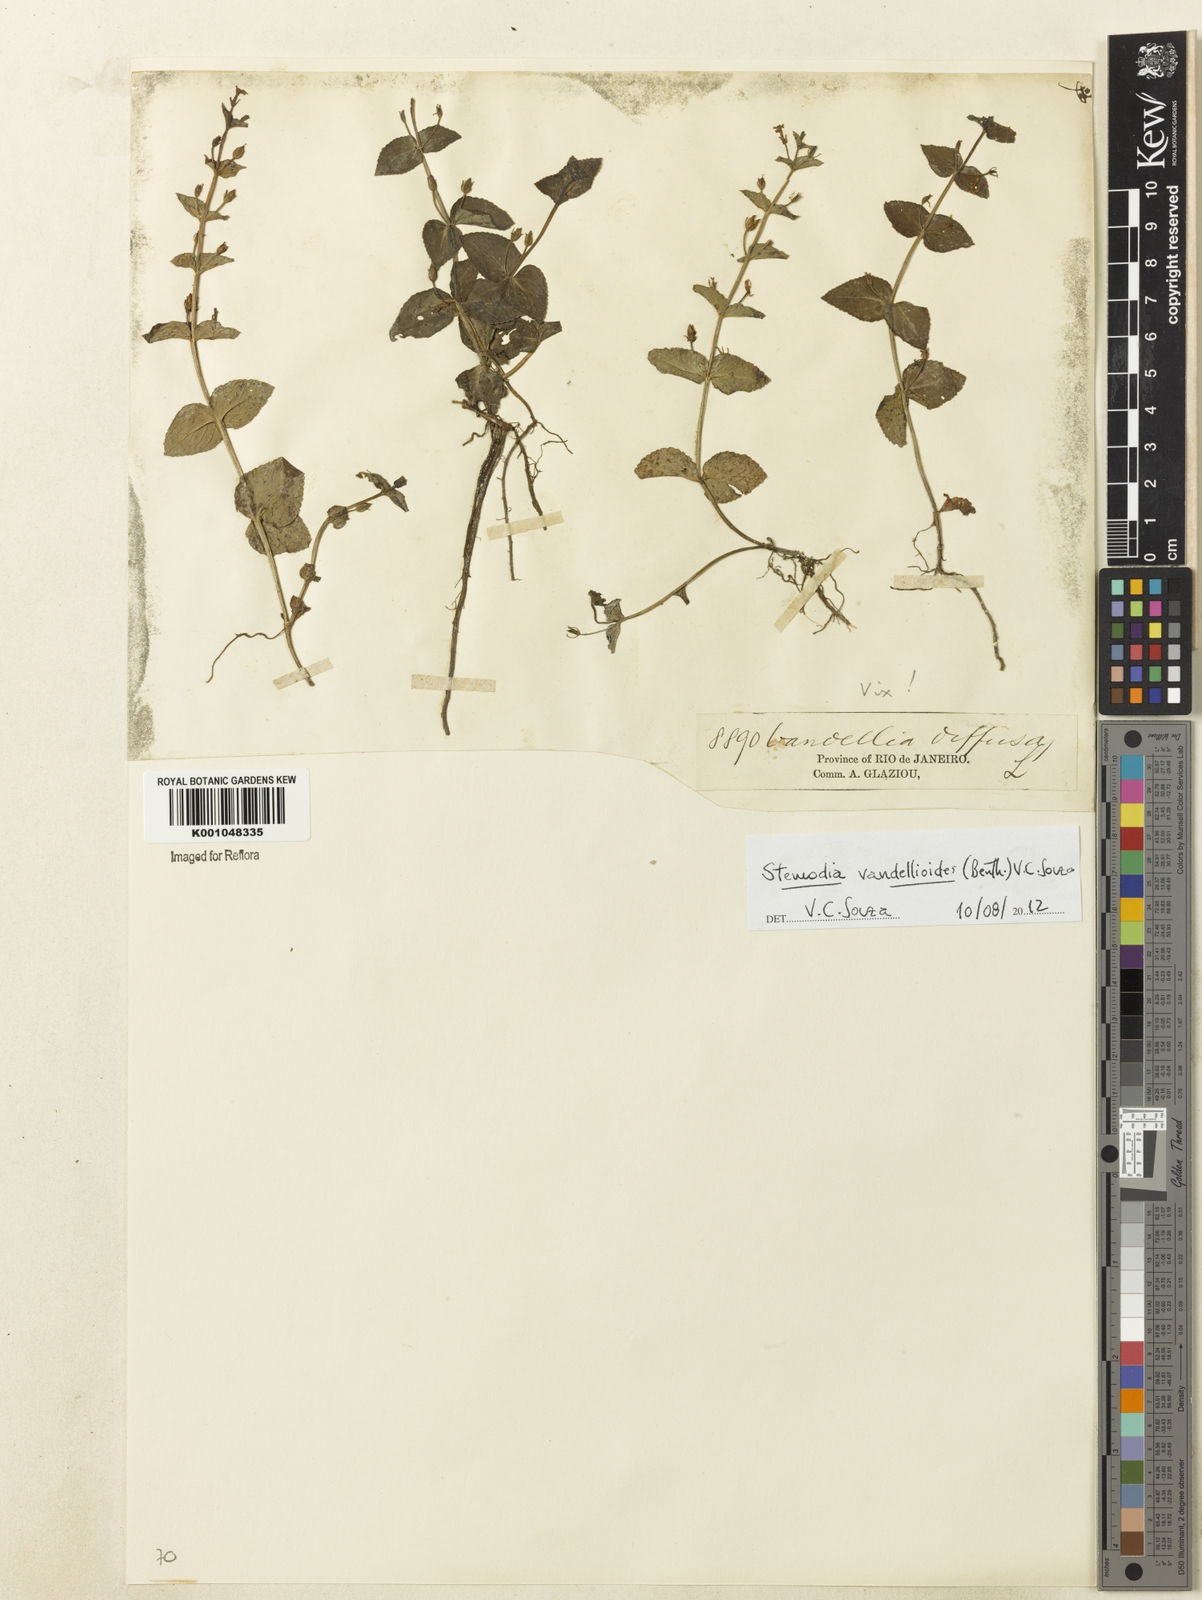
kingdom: Plantae
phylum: Tracheophyta
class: Magnoliopsida
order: Lamiales
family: Plantaginaceae
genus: Darcya
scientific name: Darcya vandellioides
